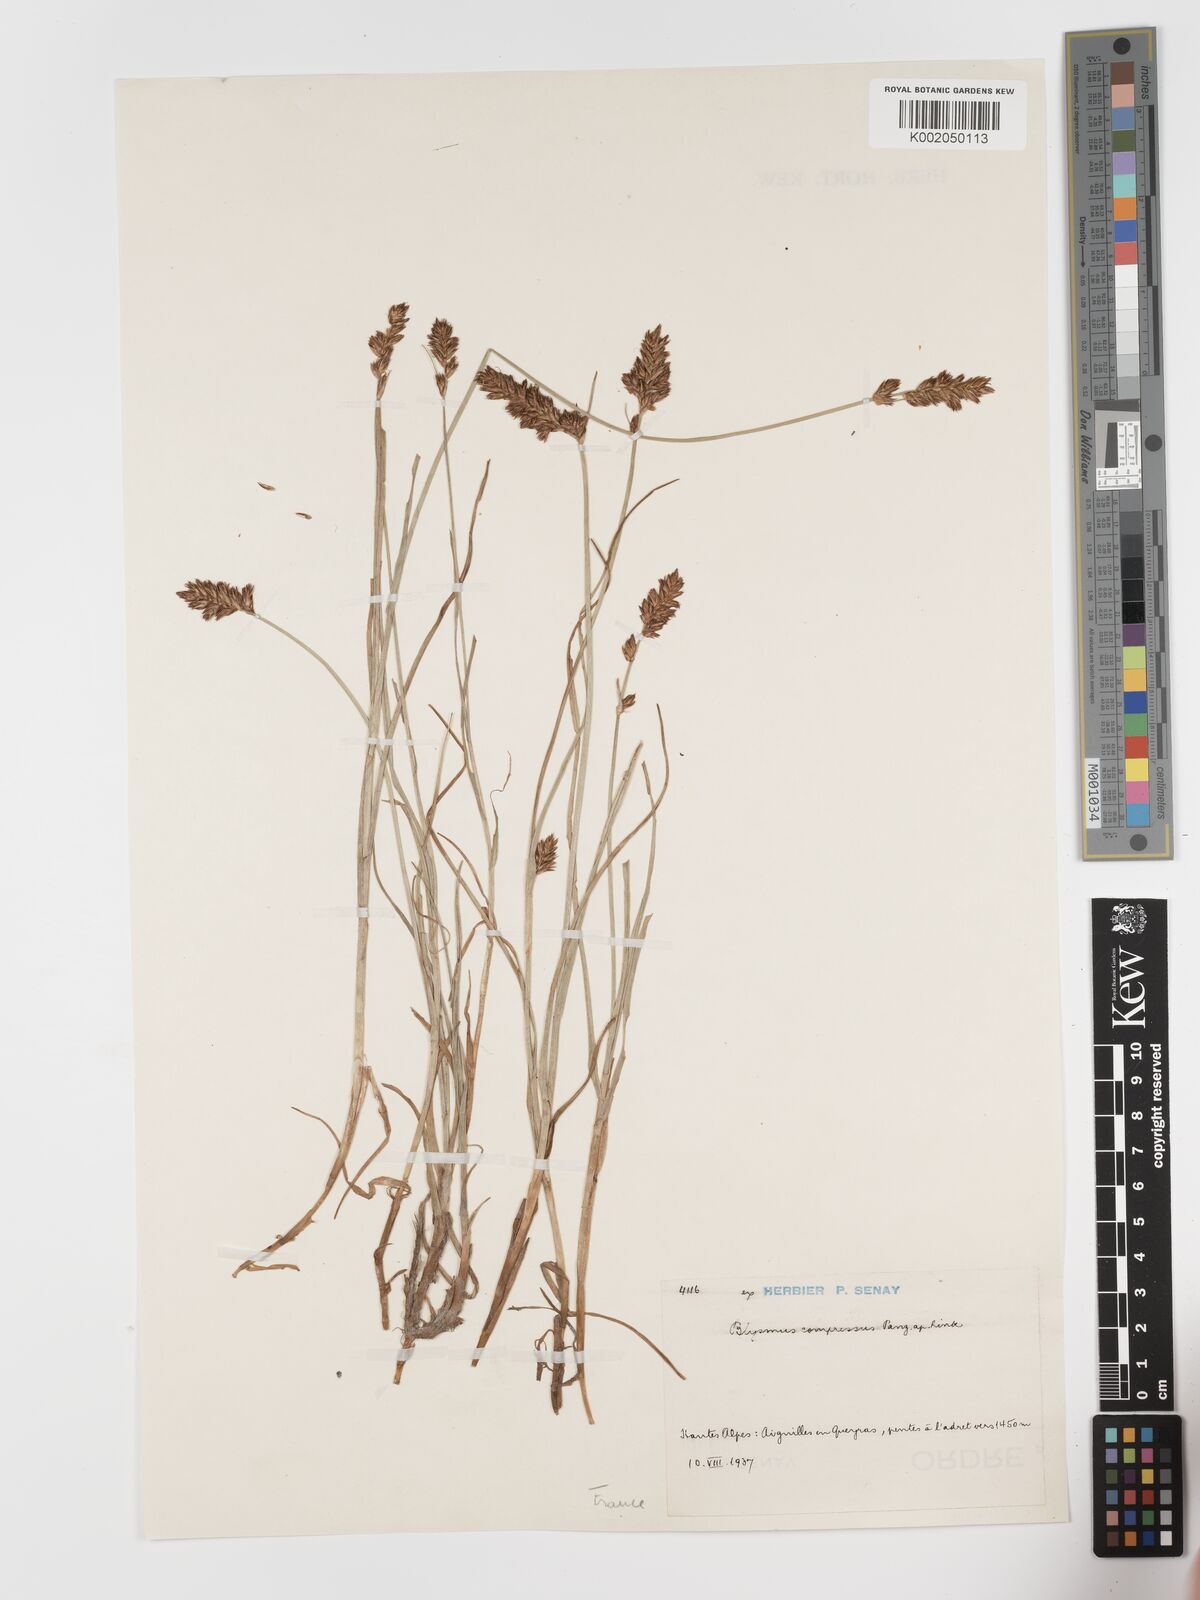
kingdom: Plantae
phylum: Tracheophyta
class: Liliopsida
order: Poales
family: Cyperaceae
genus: Blysmus
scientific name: Blysmus compressus
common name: Flat-sedge
